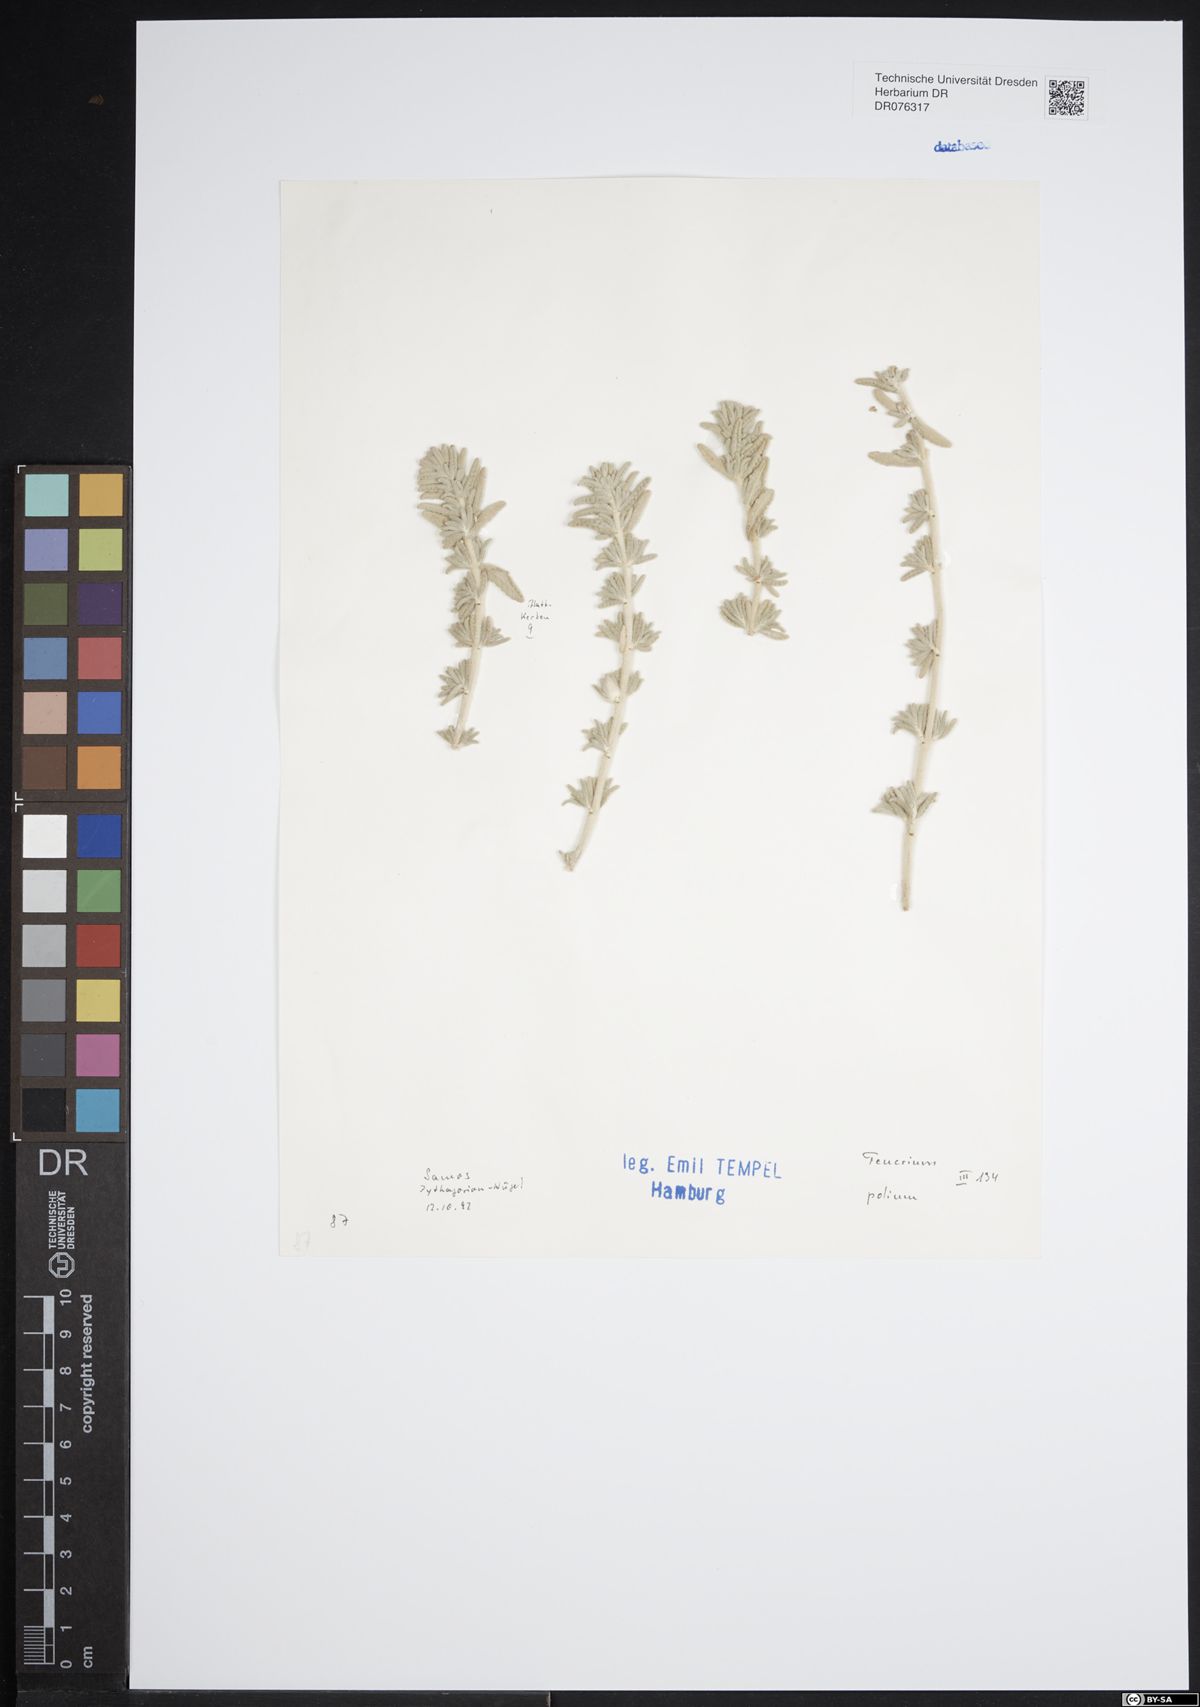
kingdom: Plantae
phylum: Tracheophyta
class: Magnoliopsida
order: Lamiales
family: Lamiaceae
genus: Teucrium
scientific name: Teucrium polium
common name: Poley
